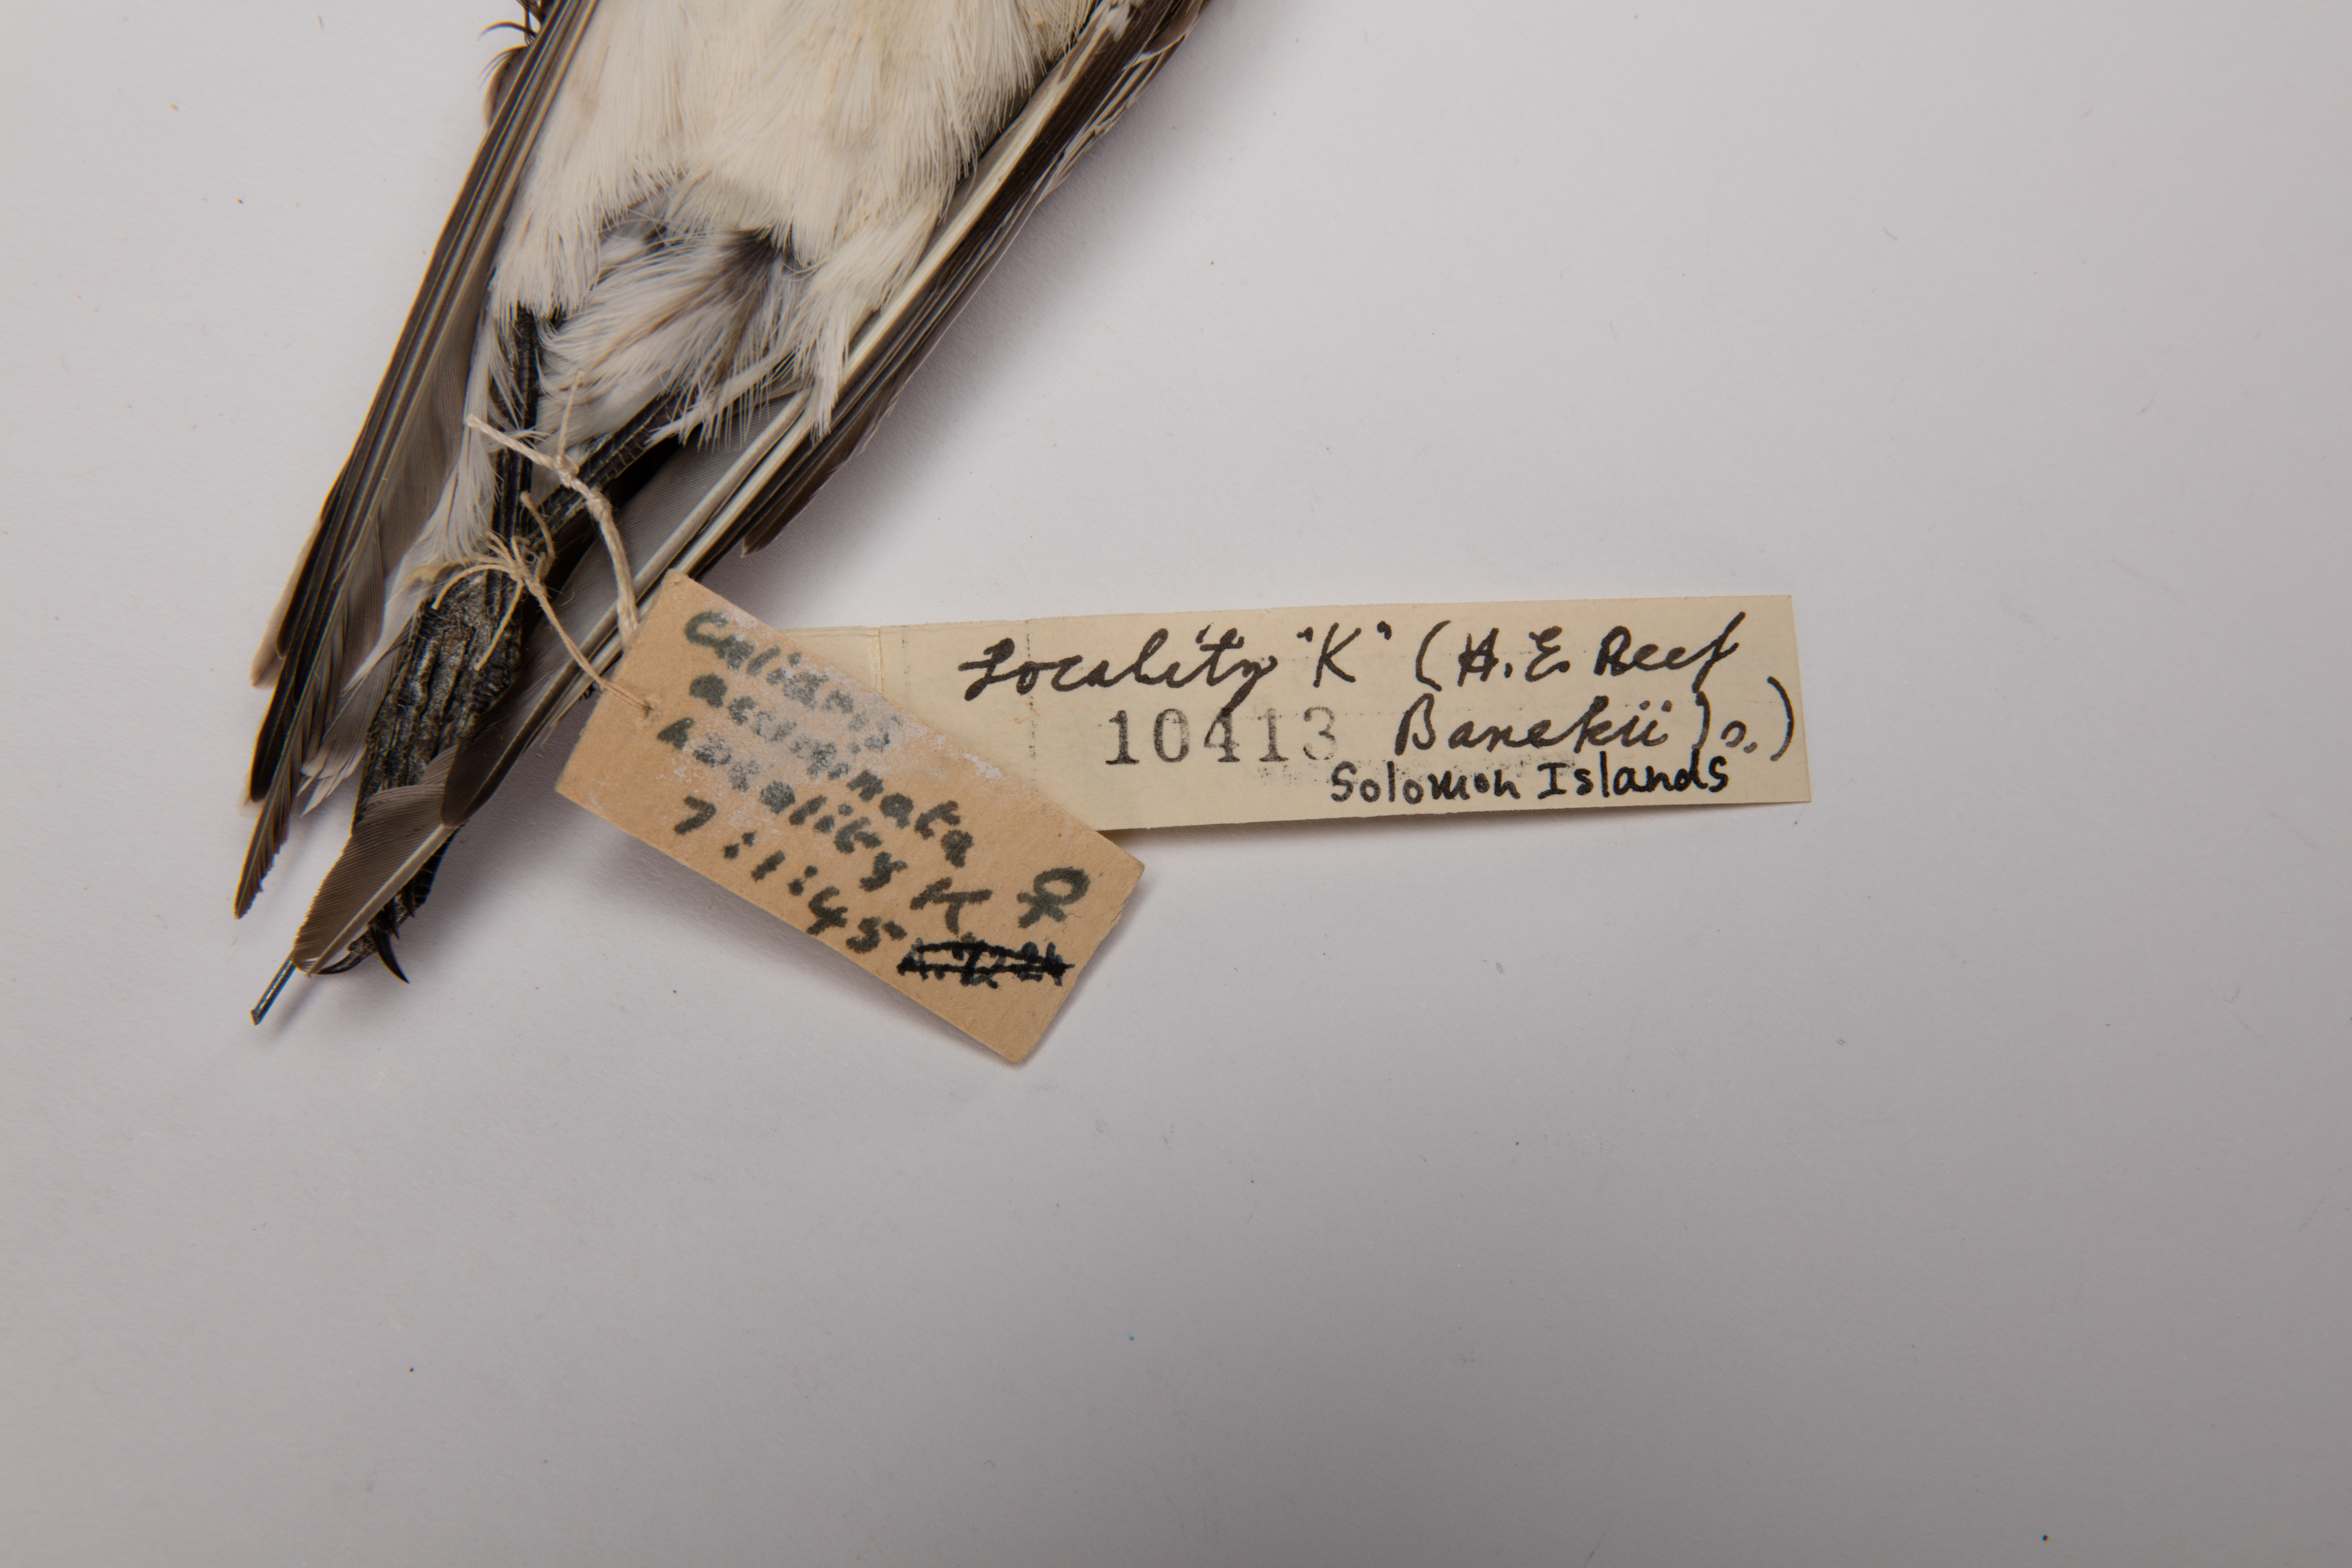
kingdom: Animalia
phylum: Chordata
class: Aves
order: Charadriiformes
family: Scolopacidae
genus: Calidris
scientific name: Calidris acuminata
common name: Sharp-tailed sandpiper
